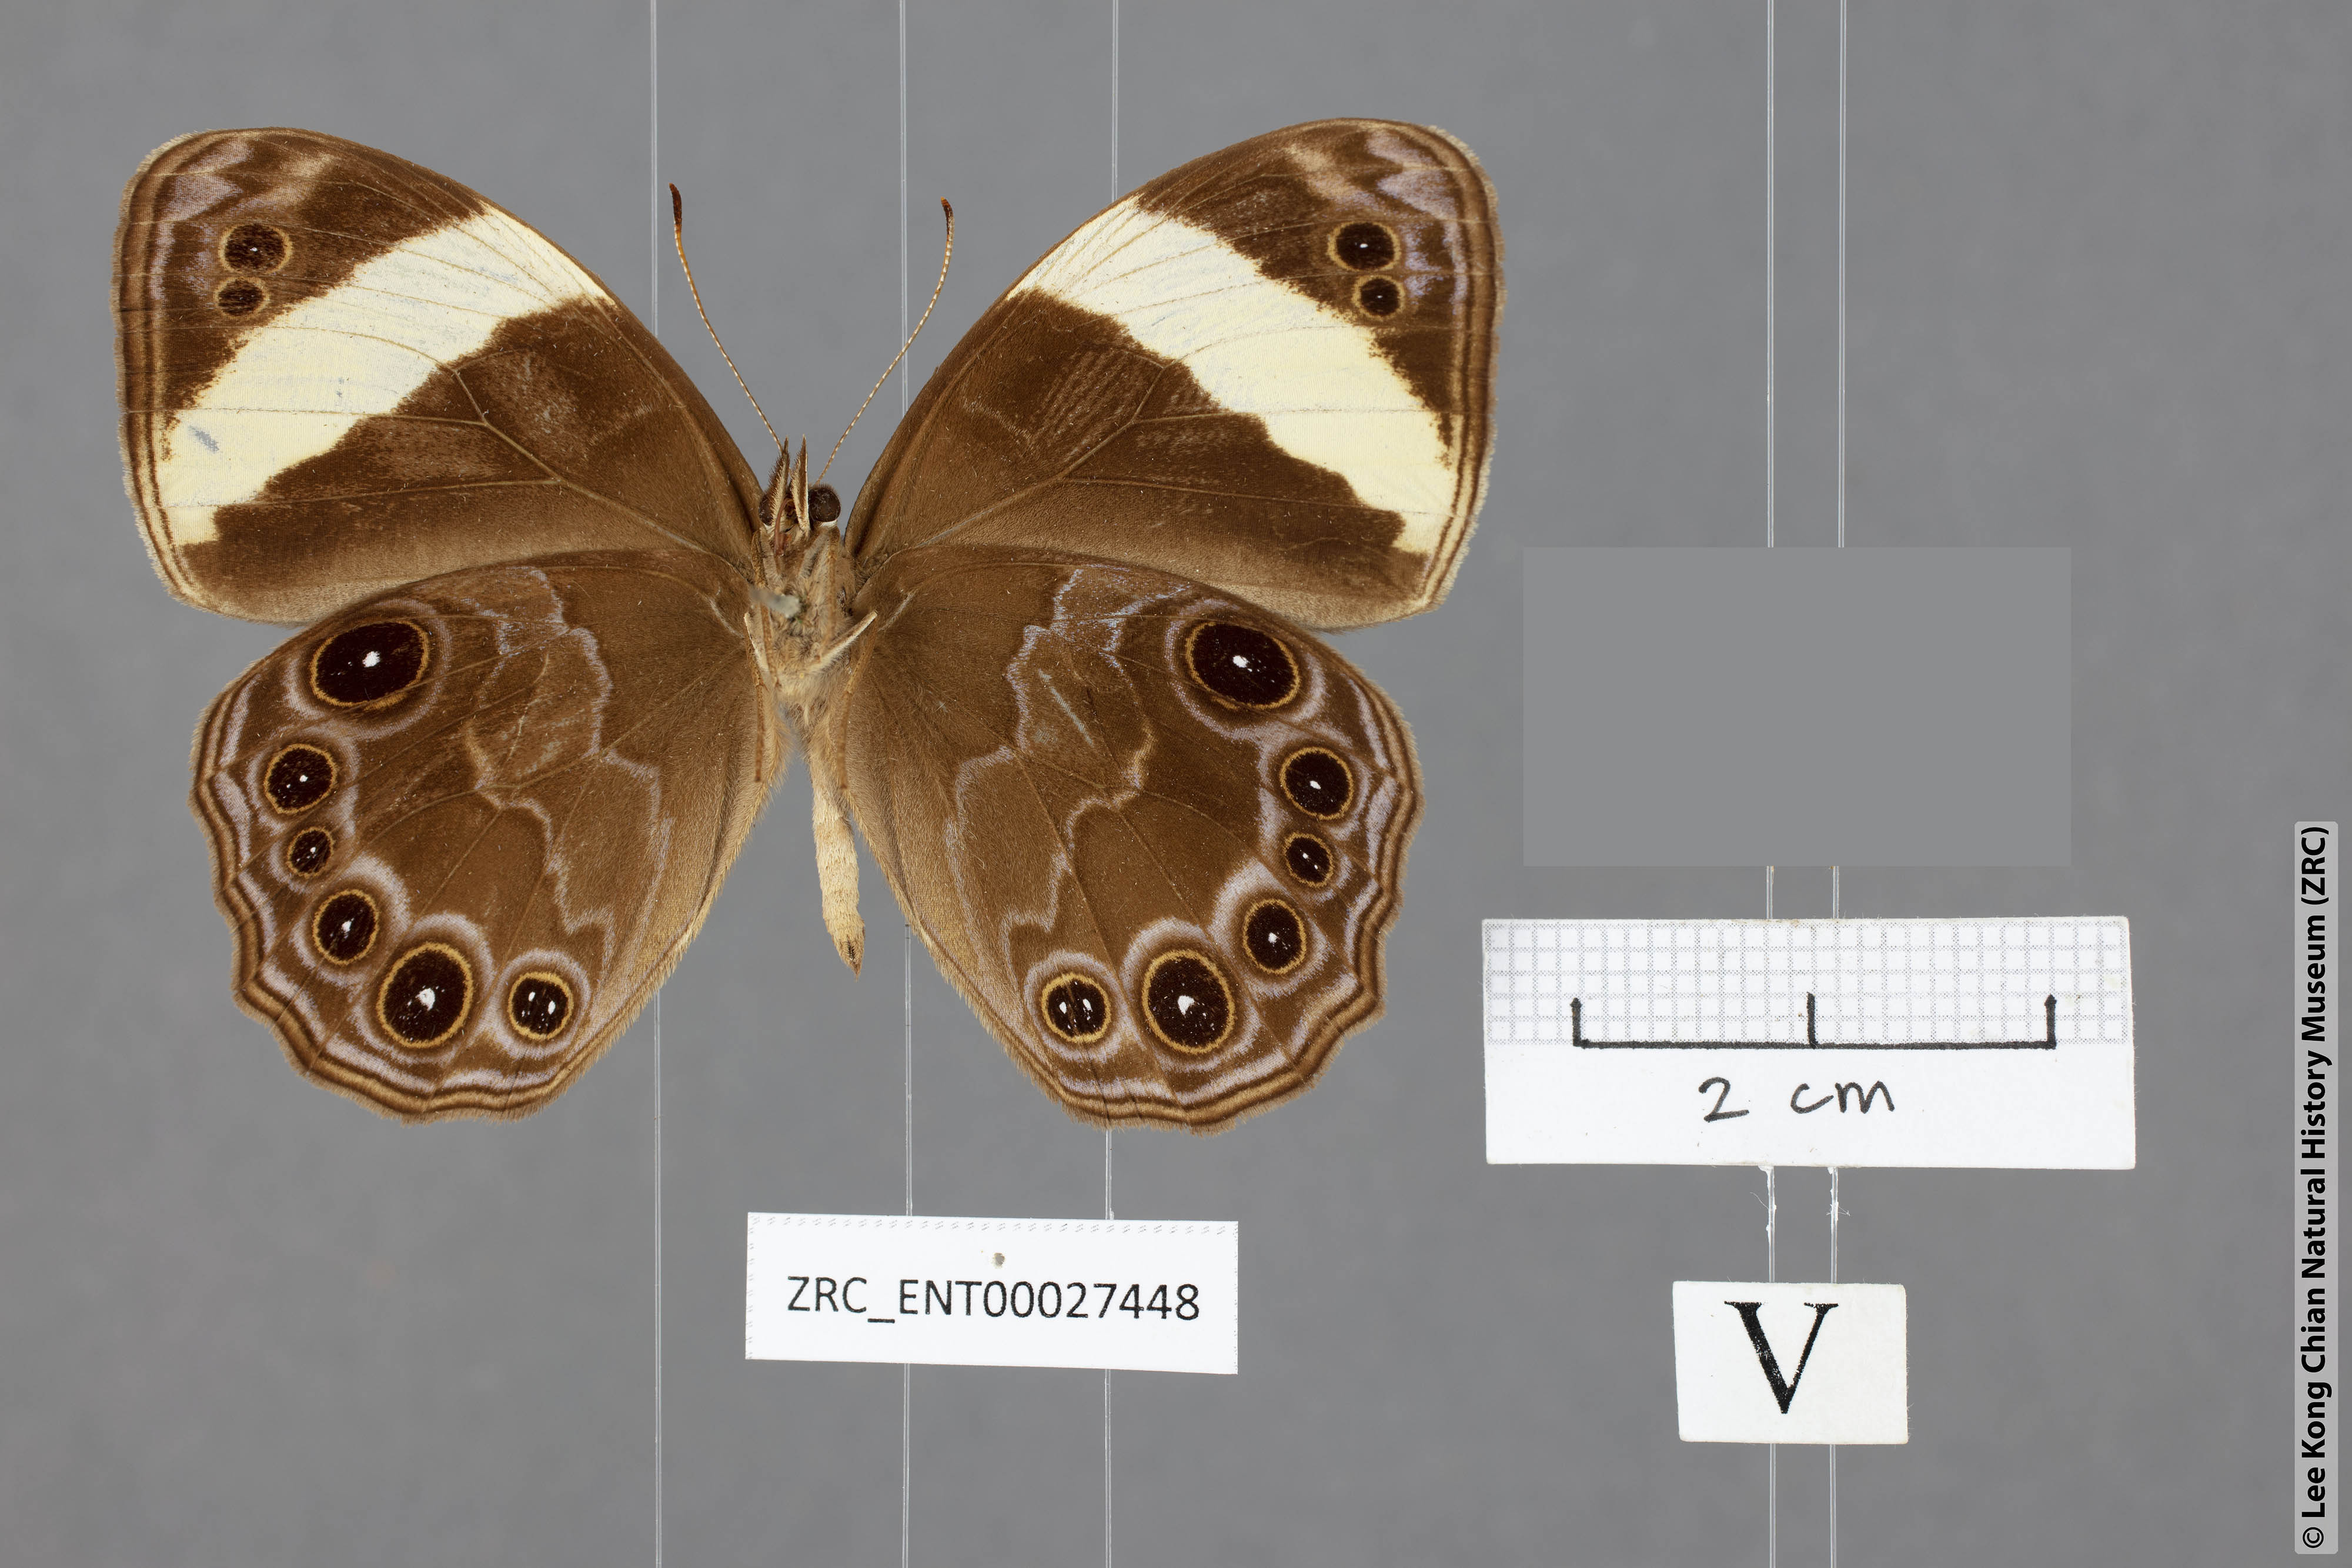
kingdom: Animalia
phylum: Arthropoda
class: Insecta
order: Lepidoptera
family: Nymphalidae
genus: Lethe
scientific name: Lethe verma
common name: Straight-banded treebrown
